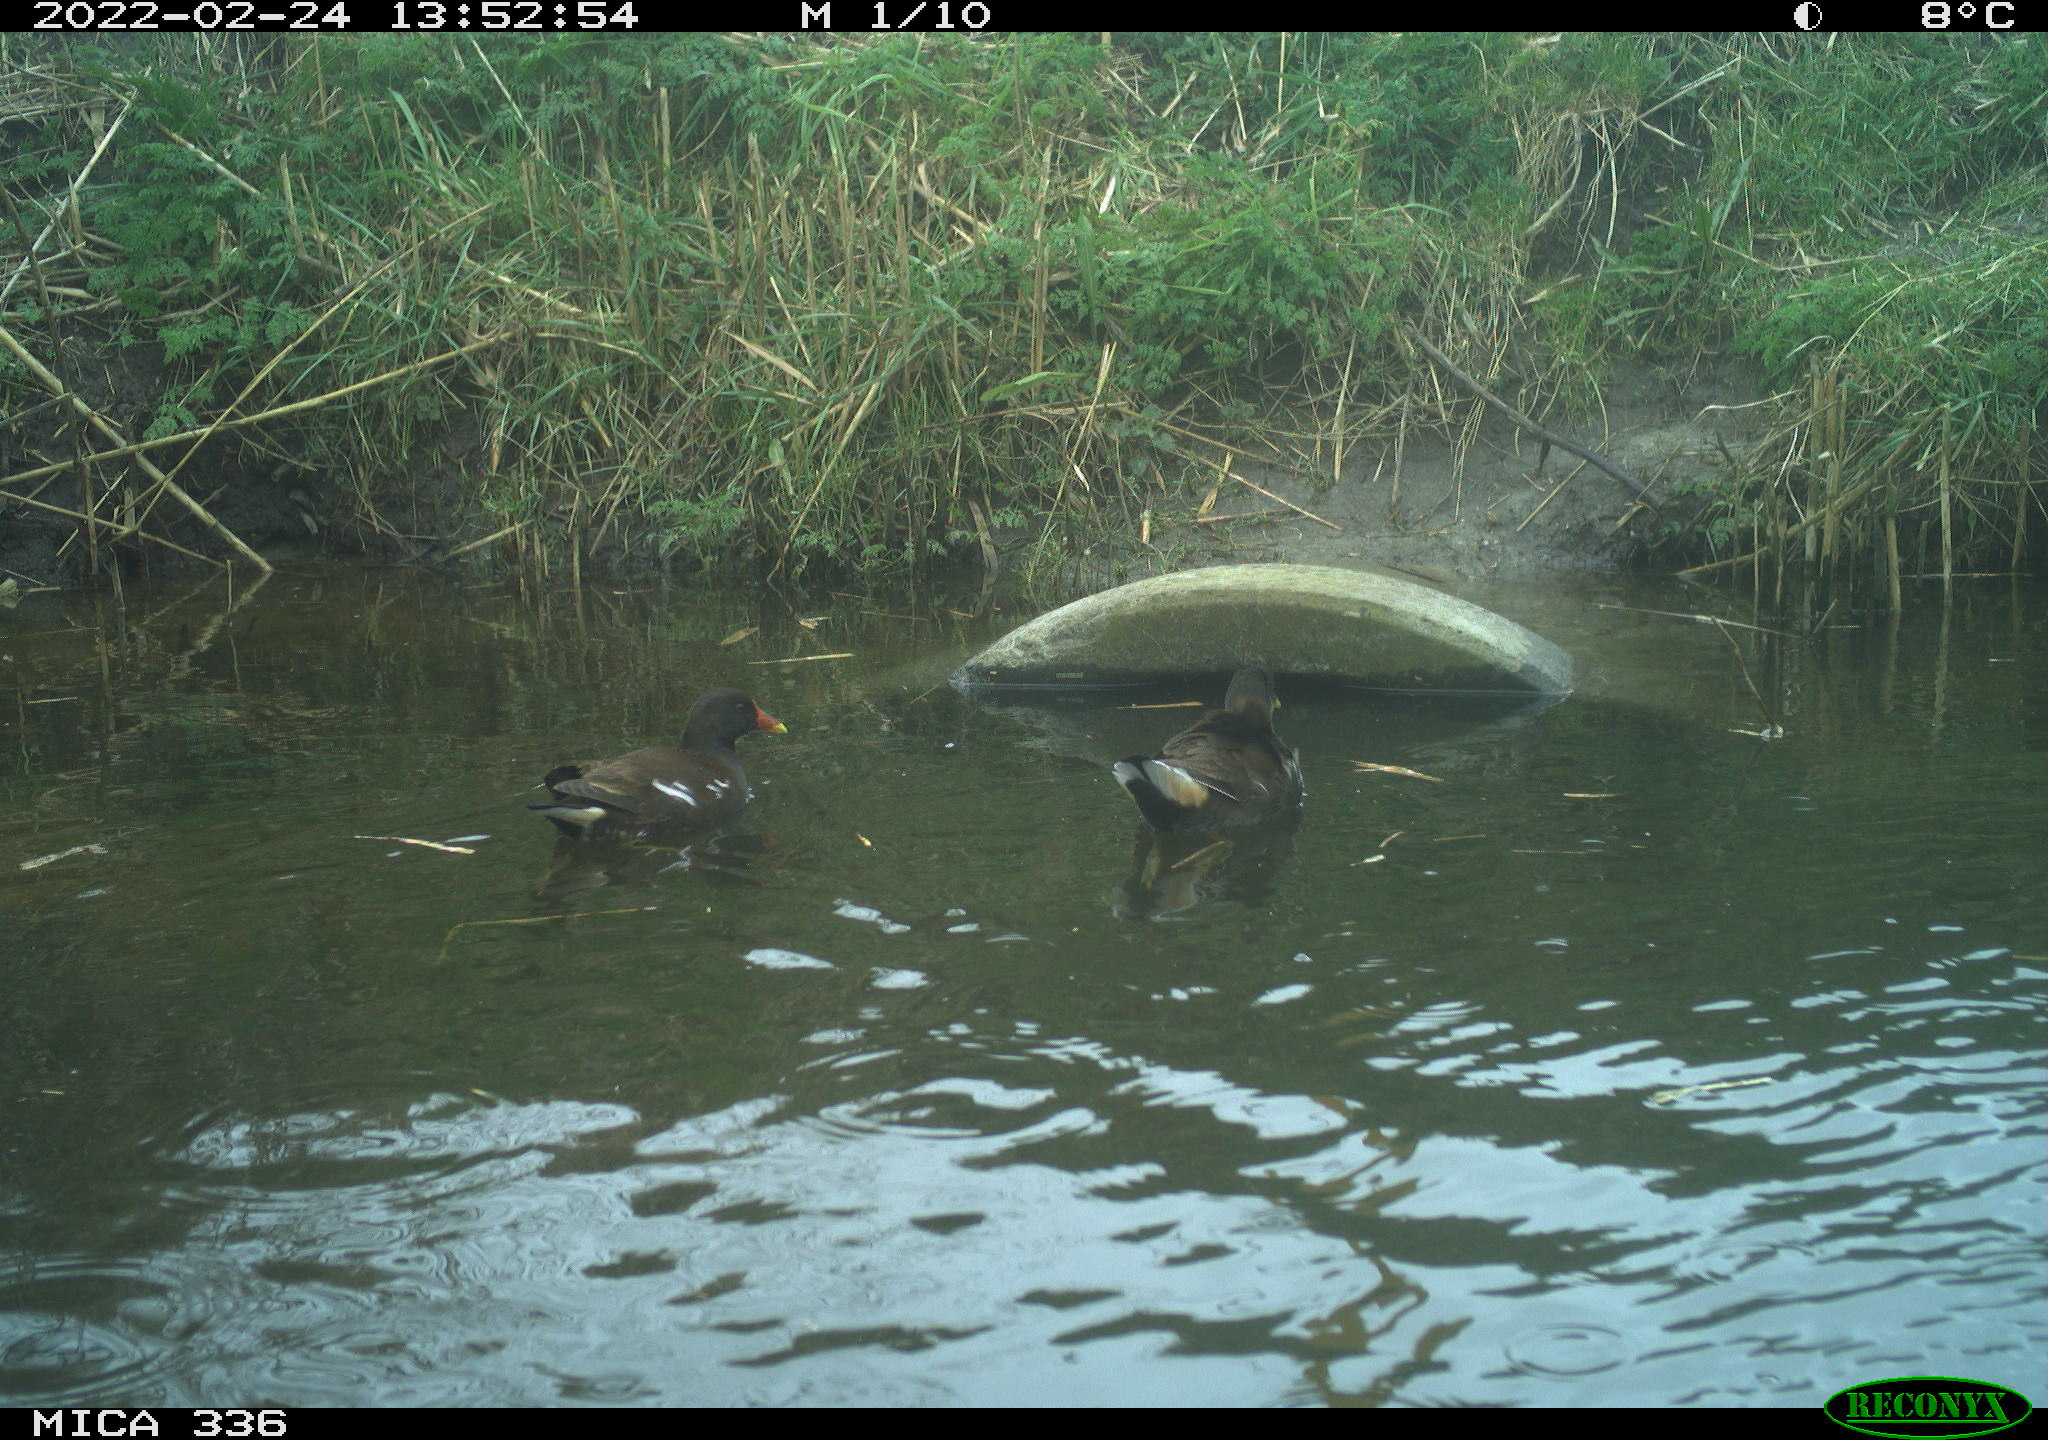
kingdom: Animalia
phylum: Chordata
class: Aves
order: Gruiformes
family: Rallidae
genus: Gallinula
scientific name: Gallinula chloropus
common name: Common moorhen
